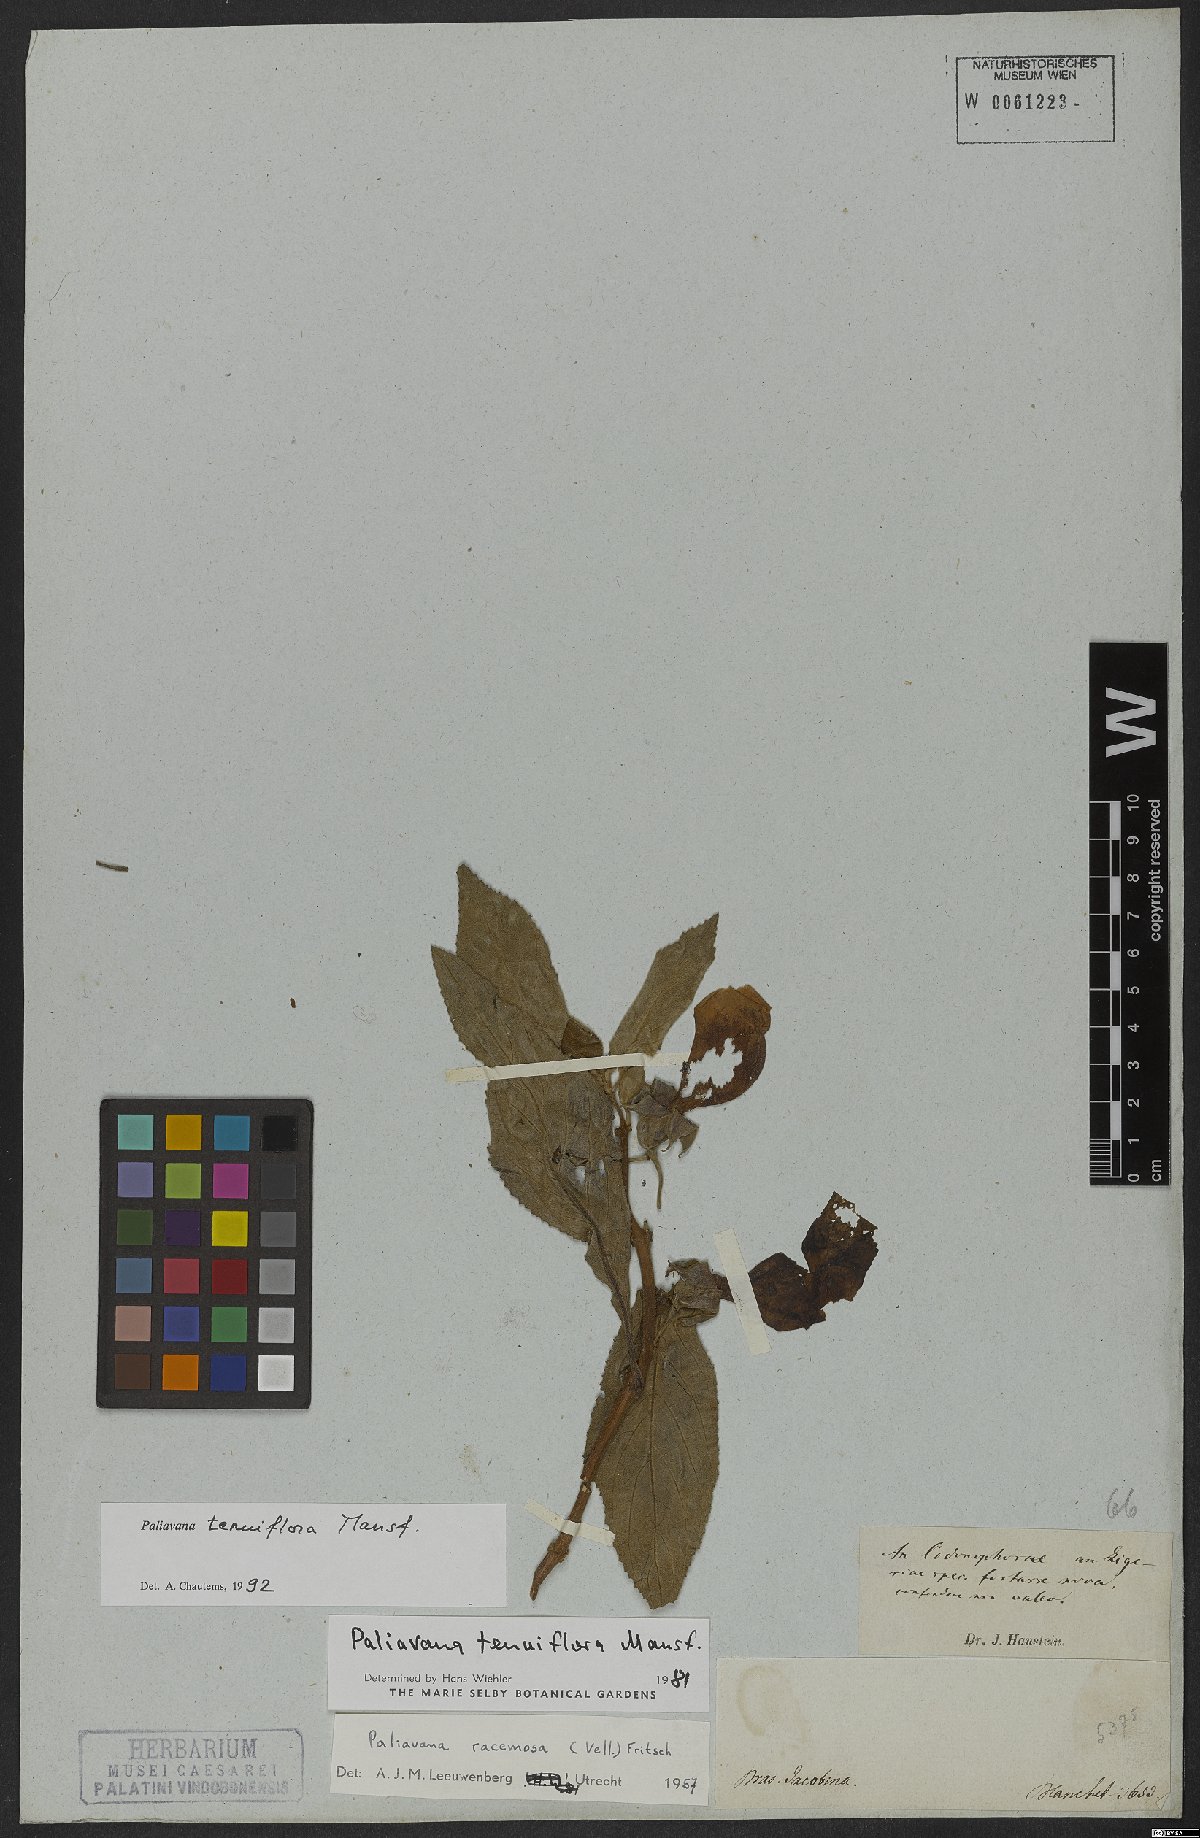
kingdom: Plantae
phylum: Tracheophyta
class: Magnoliopsida
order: Lamiales
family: Gesneriaceae
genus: Paliavana
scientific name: Paliavana tenuiflora
